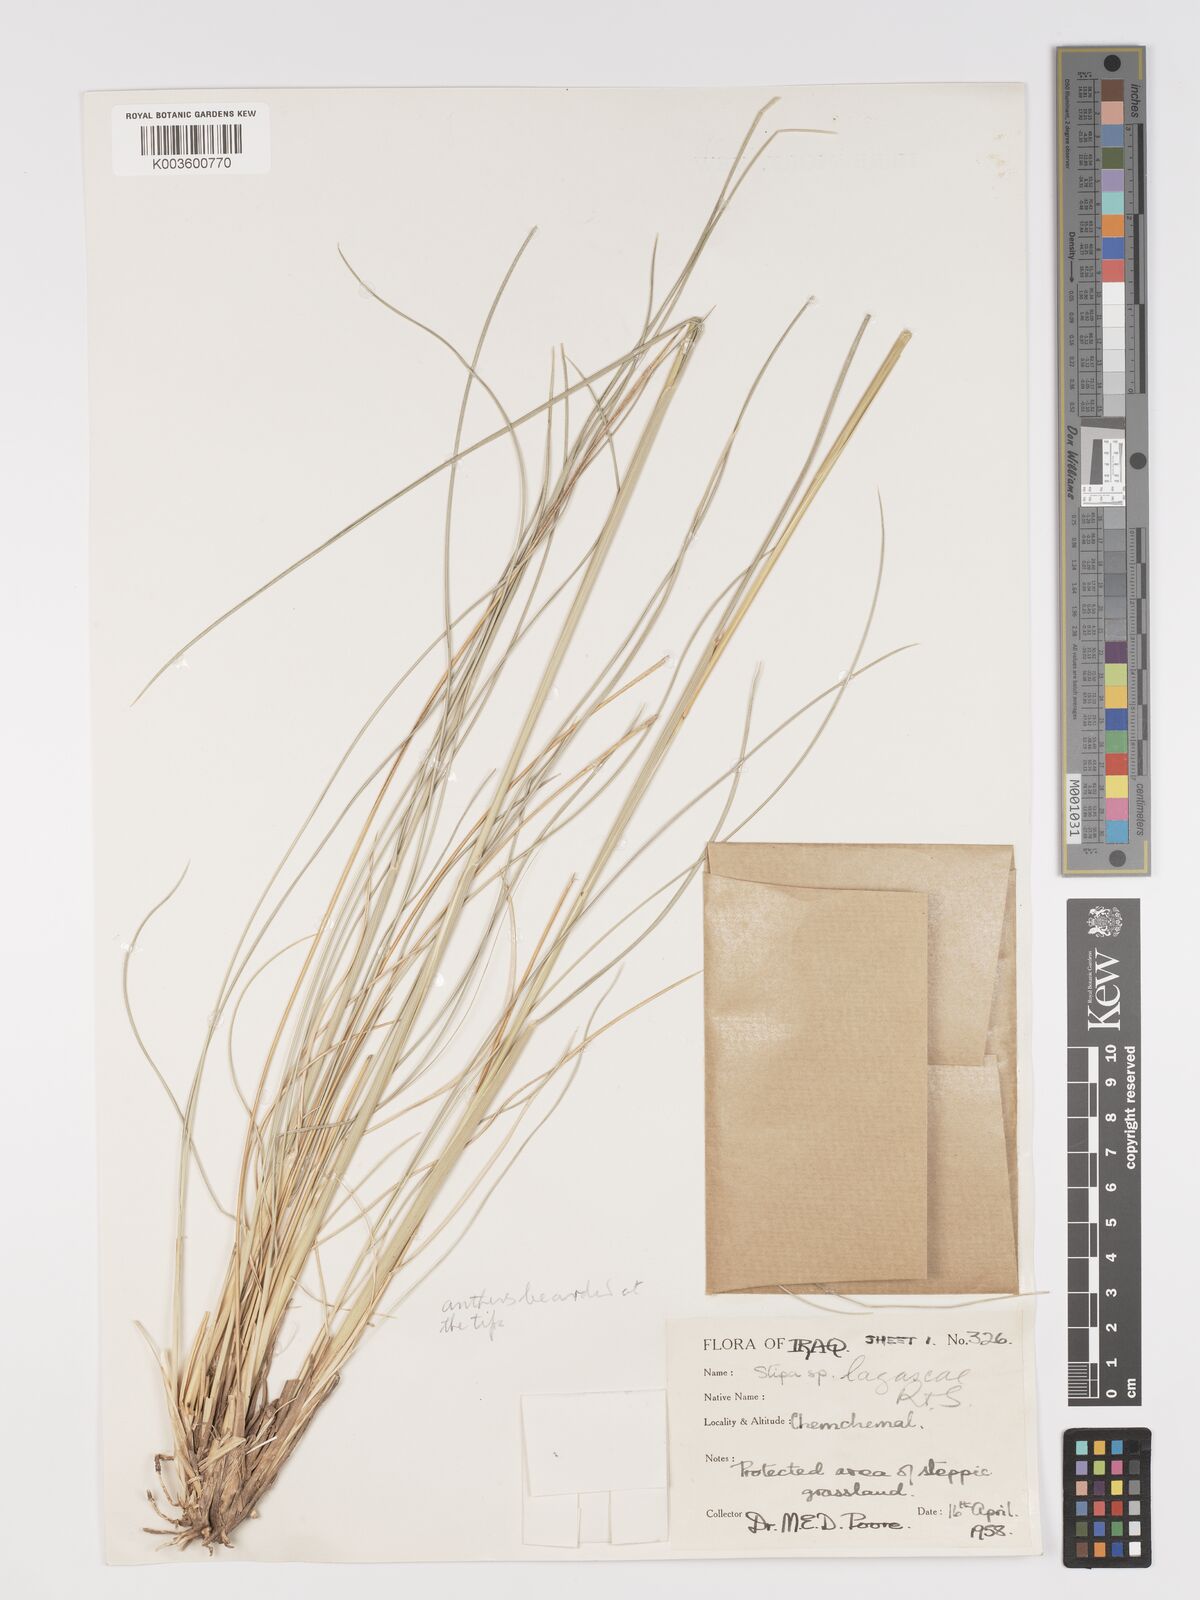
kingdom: Plantae
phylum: Tracheophyta
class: Liliopsida
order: Poales
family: Poaceae
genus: Stipa
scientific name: Stipa lagascae
